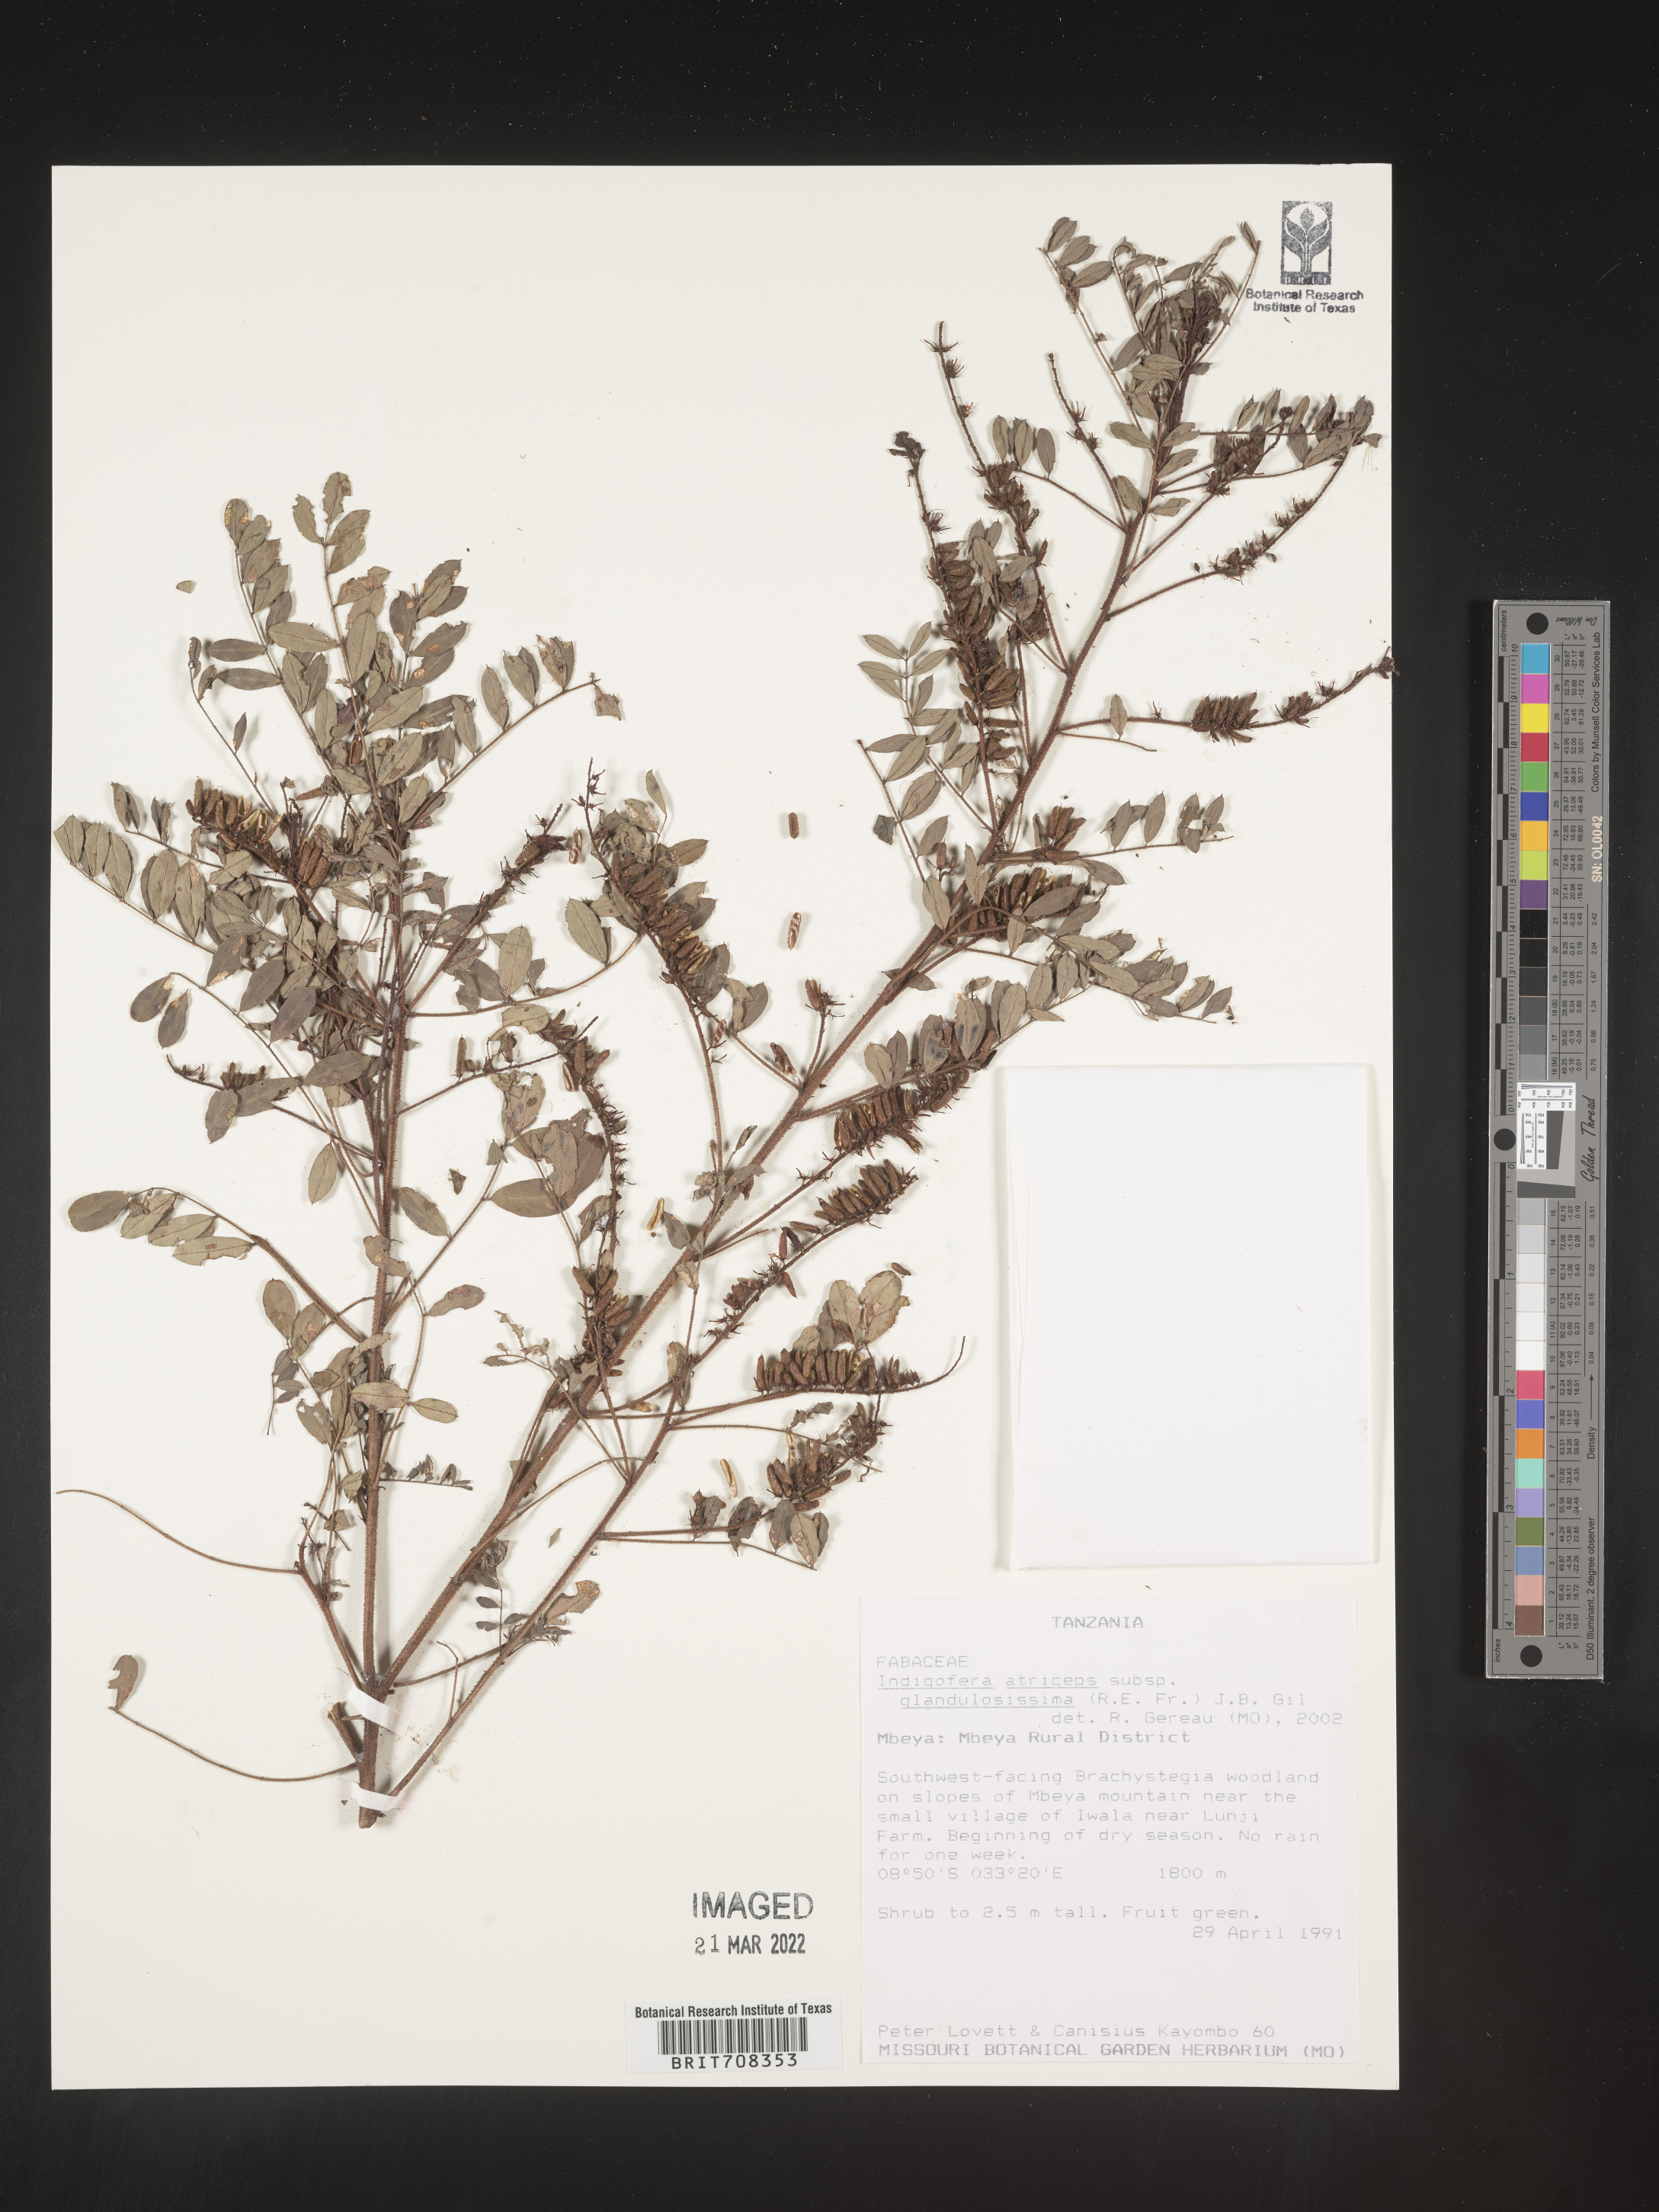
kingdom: Plantae
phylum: Tracheophyta
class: Magnoliopsida
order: Fabales
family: Fabaceae
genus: Indigofera
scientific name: Indigofera
